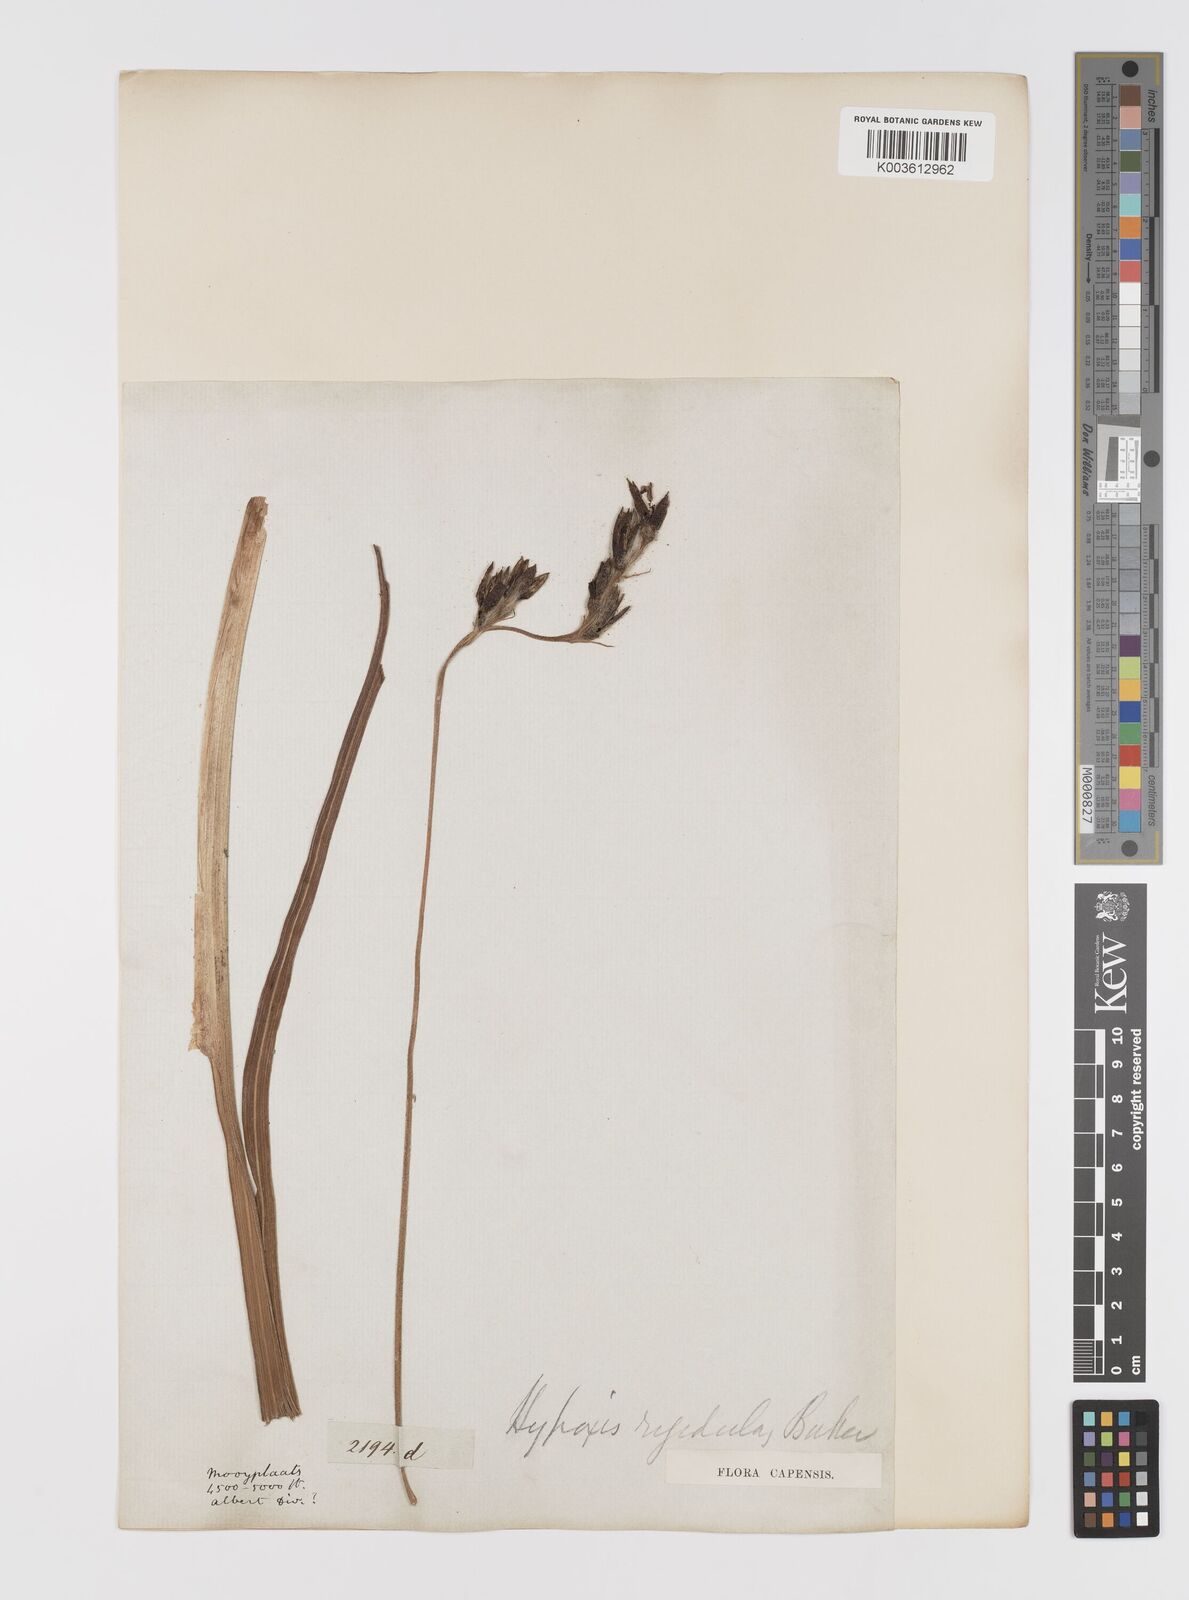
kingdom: Plantae
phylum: Tracheophyta
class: Liliopsida
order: Asparagales
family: Hypoxidaceae
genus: Hypoxis
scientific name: Hypoxis rigidula
